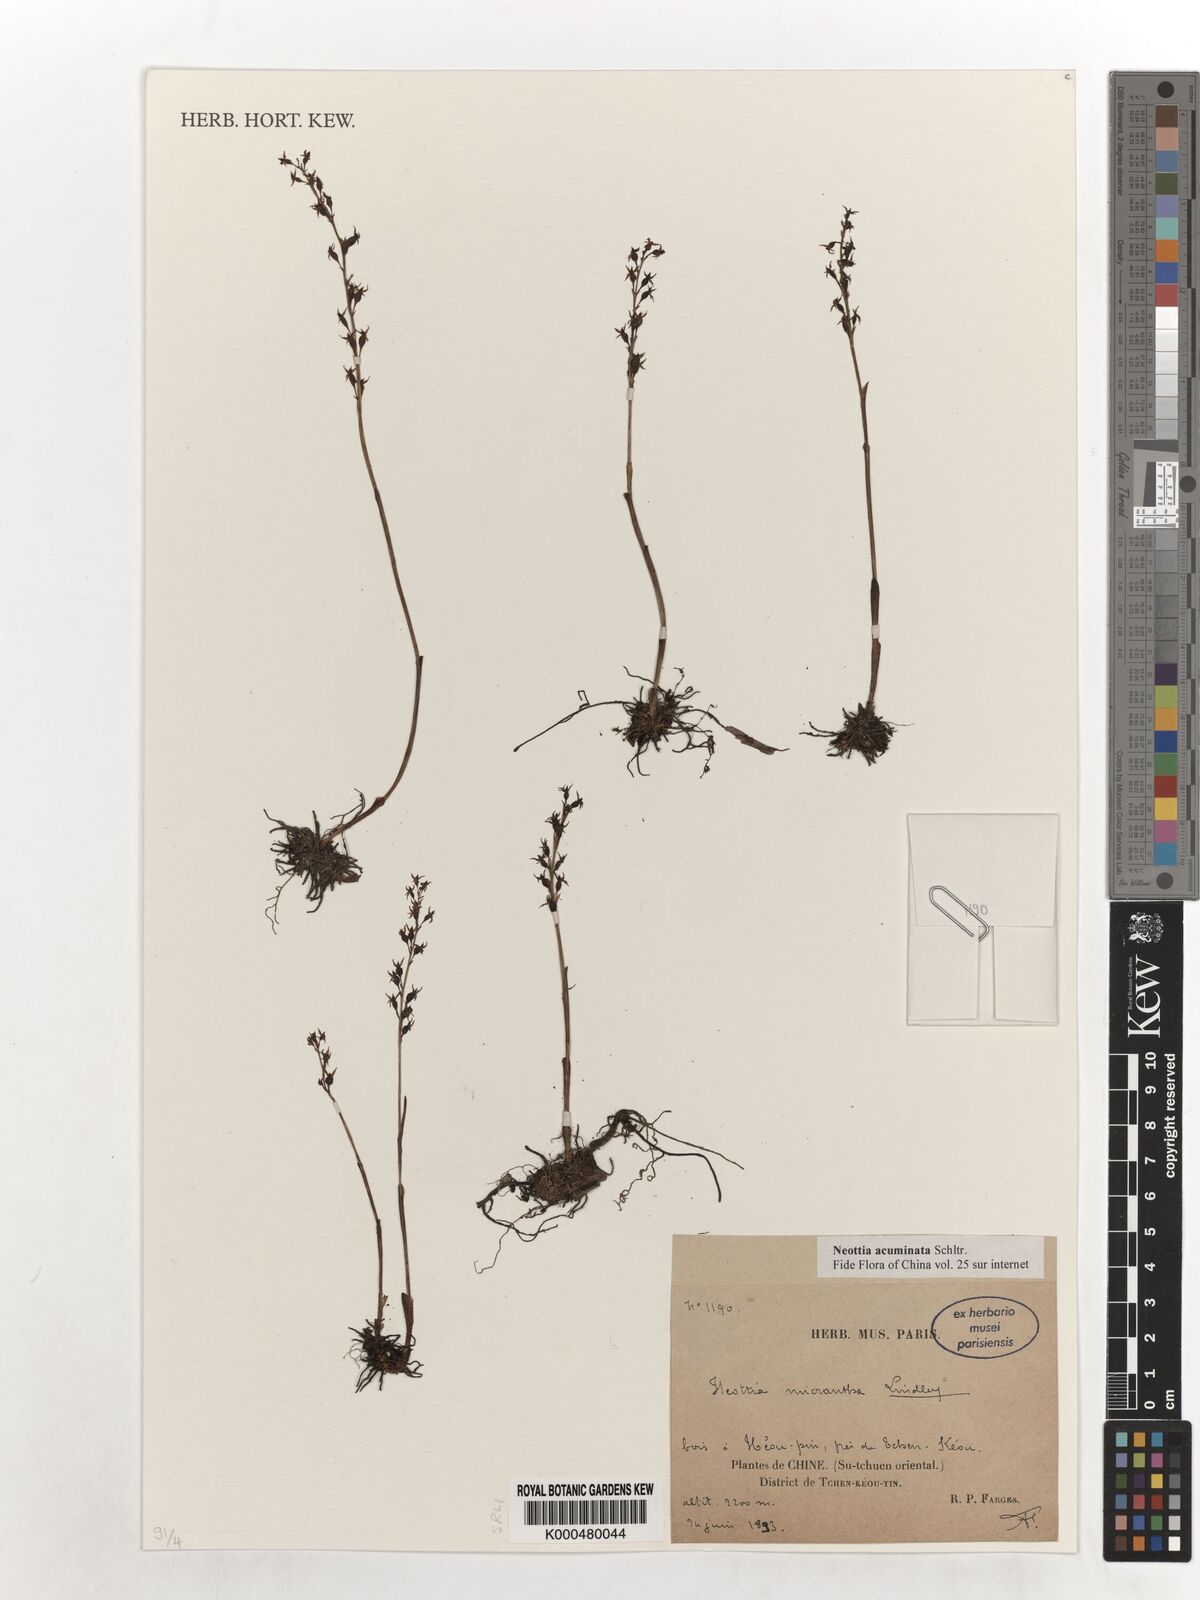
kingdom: Plantae
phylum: Tracheophyta
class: Liliopsida
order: Asparagales
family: Orchidaceae
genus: Neottia
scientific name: Neottia acuminata
